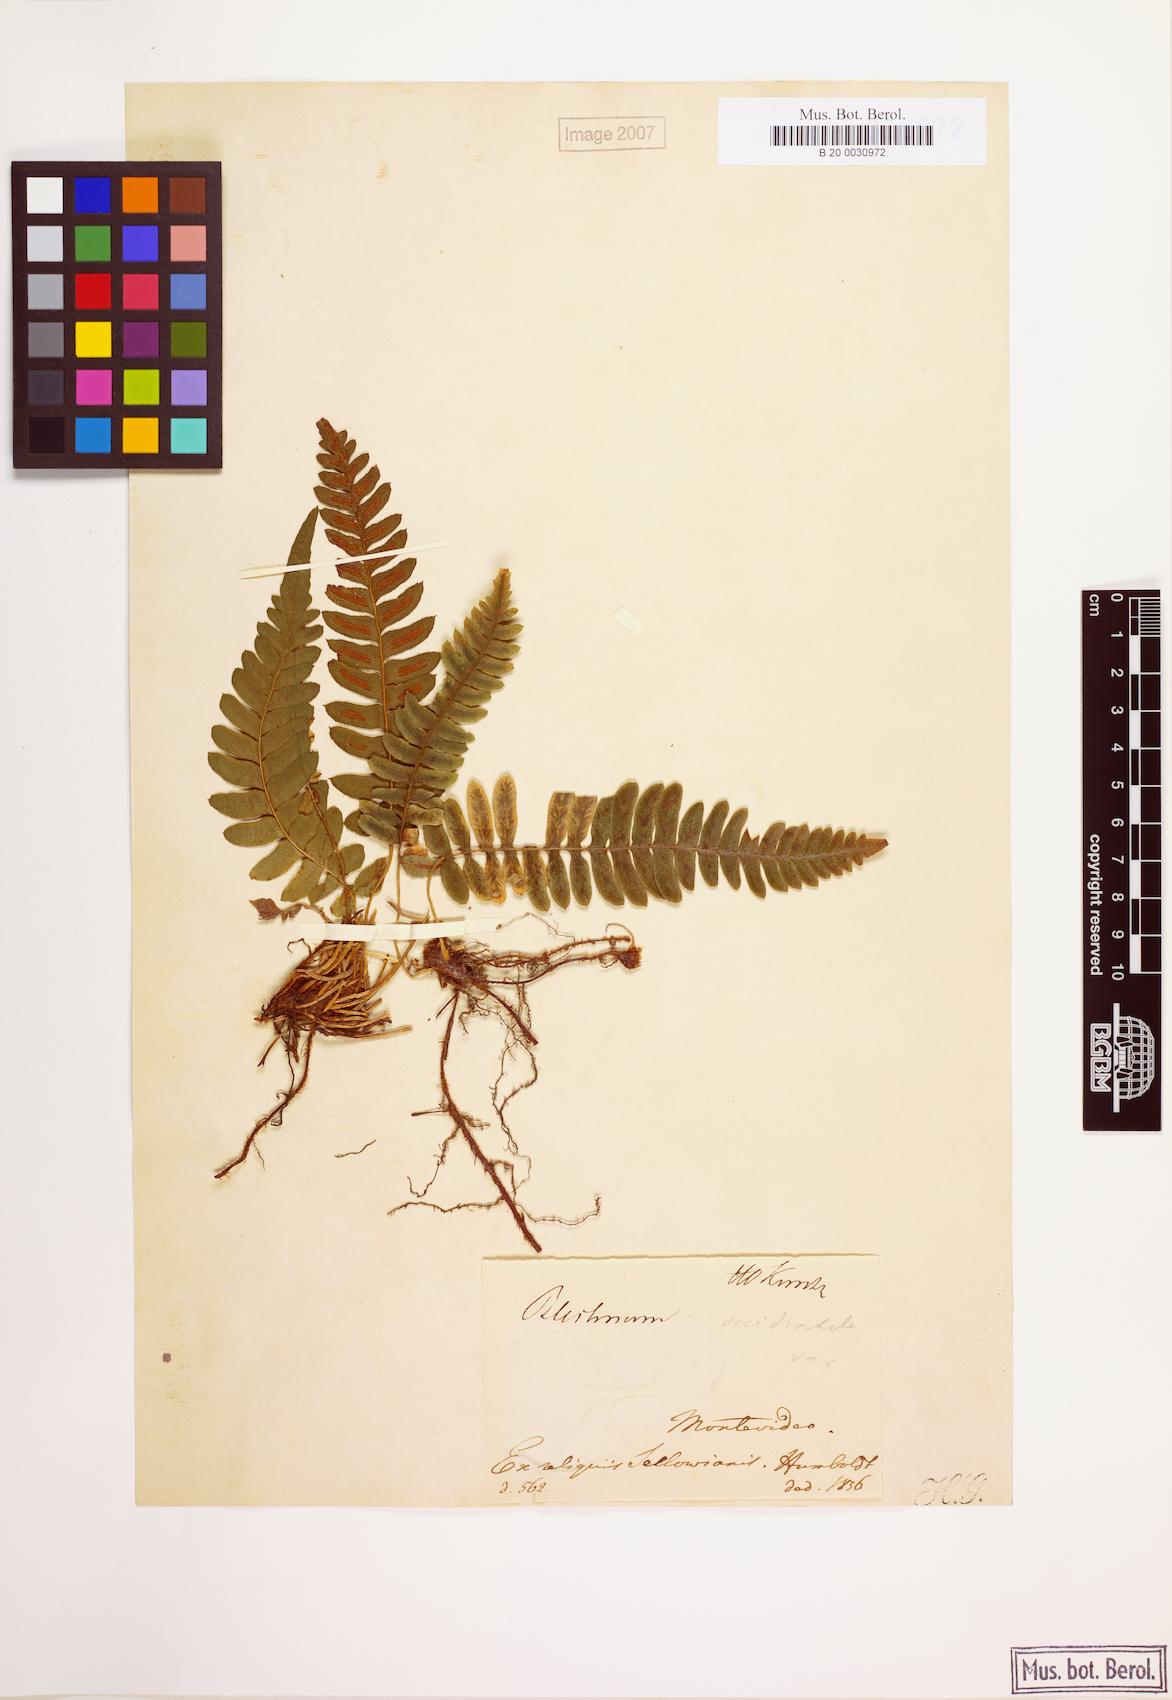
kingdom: Plantae
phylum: Tracheophyta
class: Polypodiopsida
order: Polypodiales
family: Blechnaceae
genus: Blechnum
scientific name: Blechnum laevigatum
